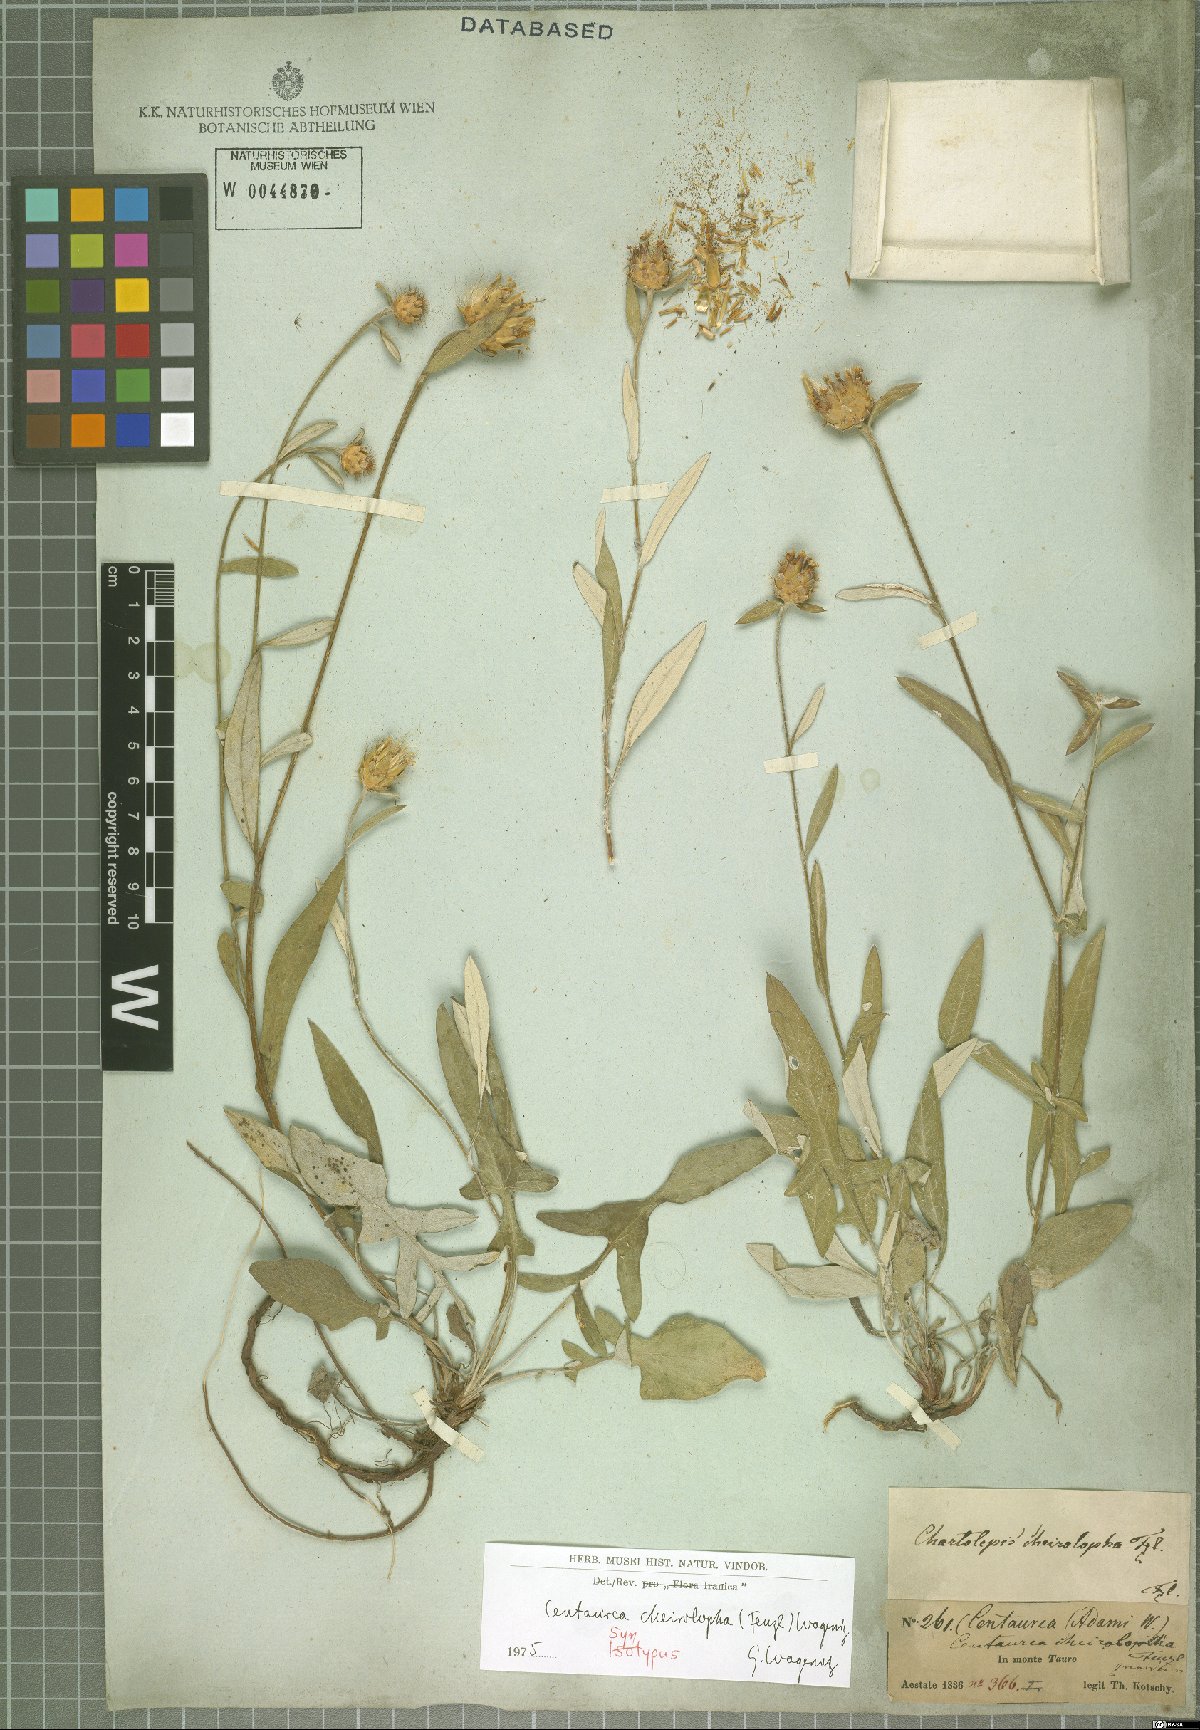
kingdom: Plantae
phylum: Tracheophyta
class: Magnoliopsida
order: Asterales
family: Asteraceae
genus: Centaurea
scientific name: Centaurea cheirolopha
